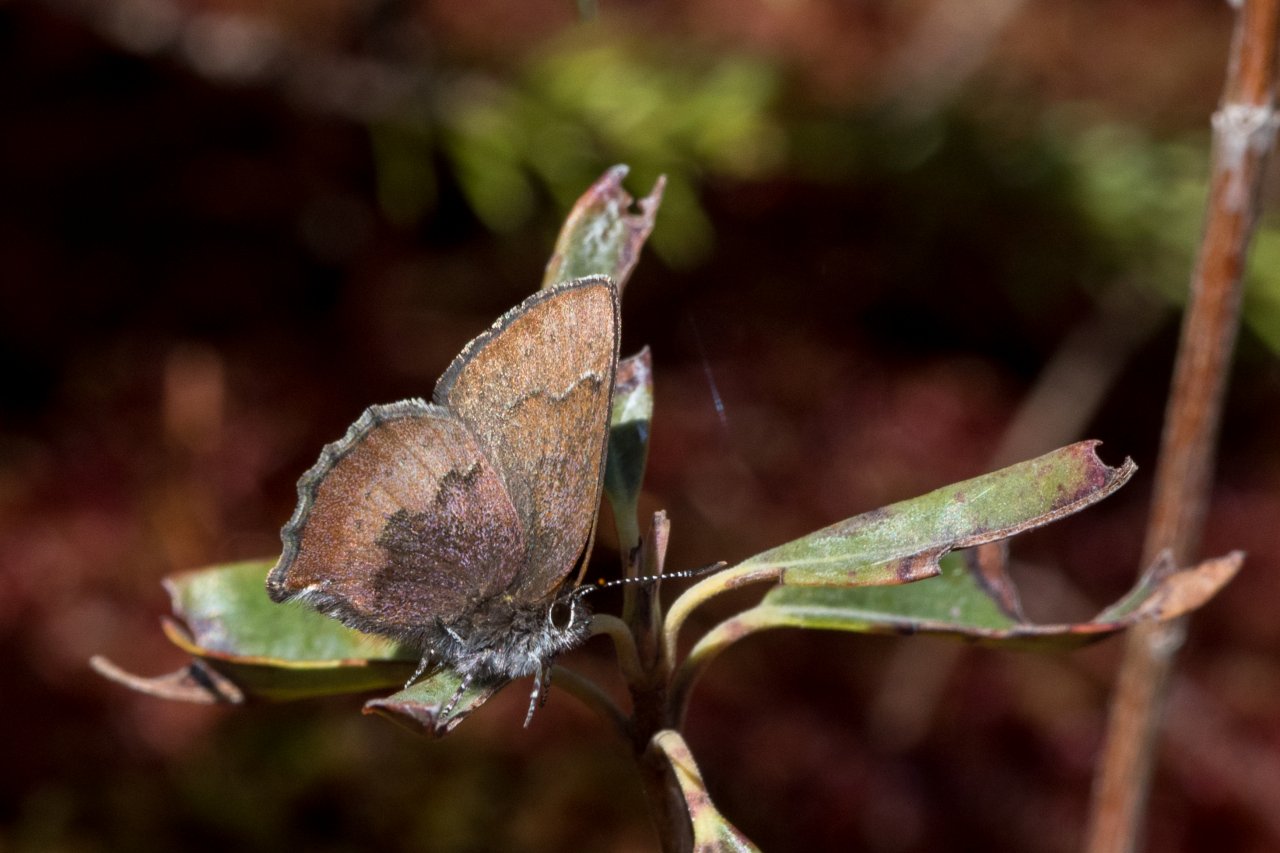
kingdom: Animalia
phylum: Arthropoda
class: Insecta
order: Lepidoptera
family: Lycaenidae
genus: Incisalia
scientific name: Incisalia irioides
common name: Brown Elfin
